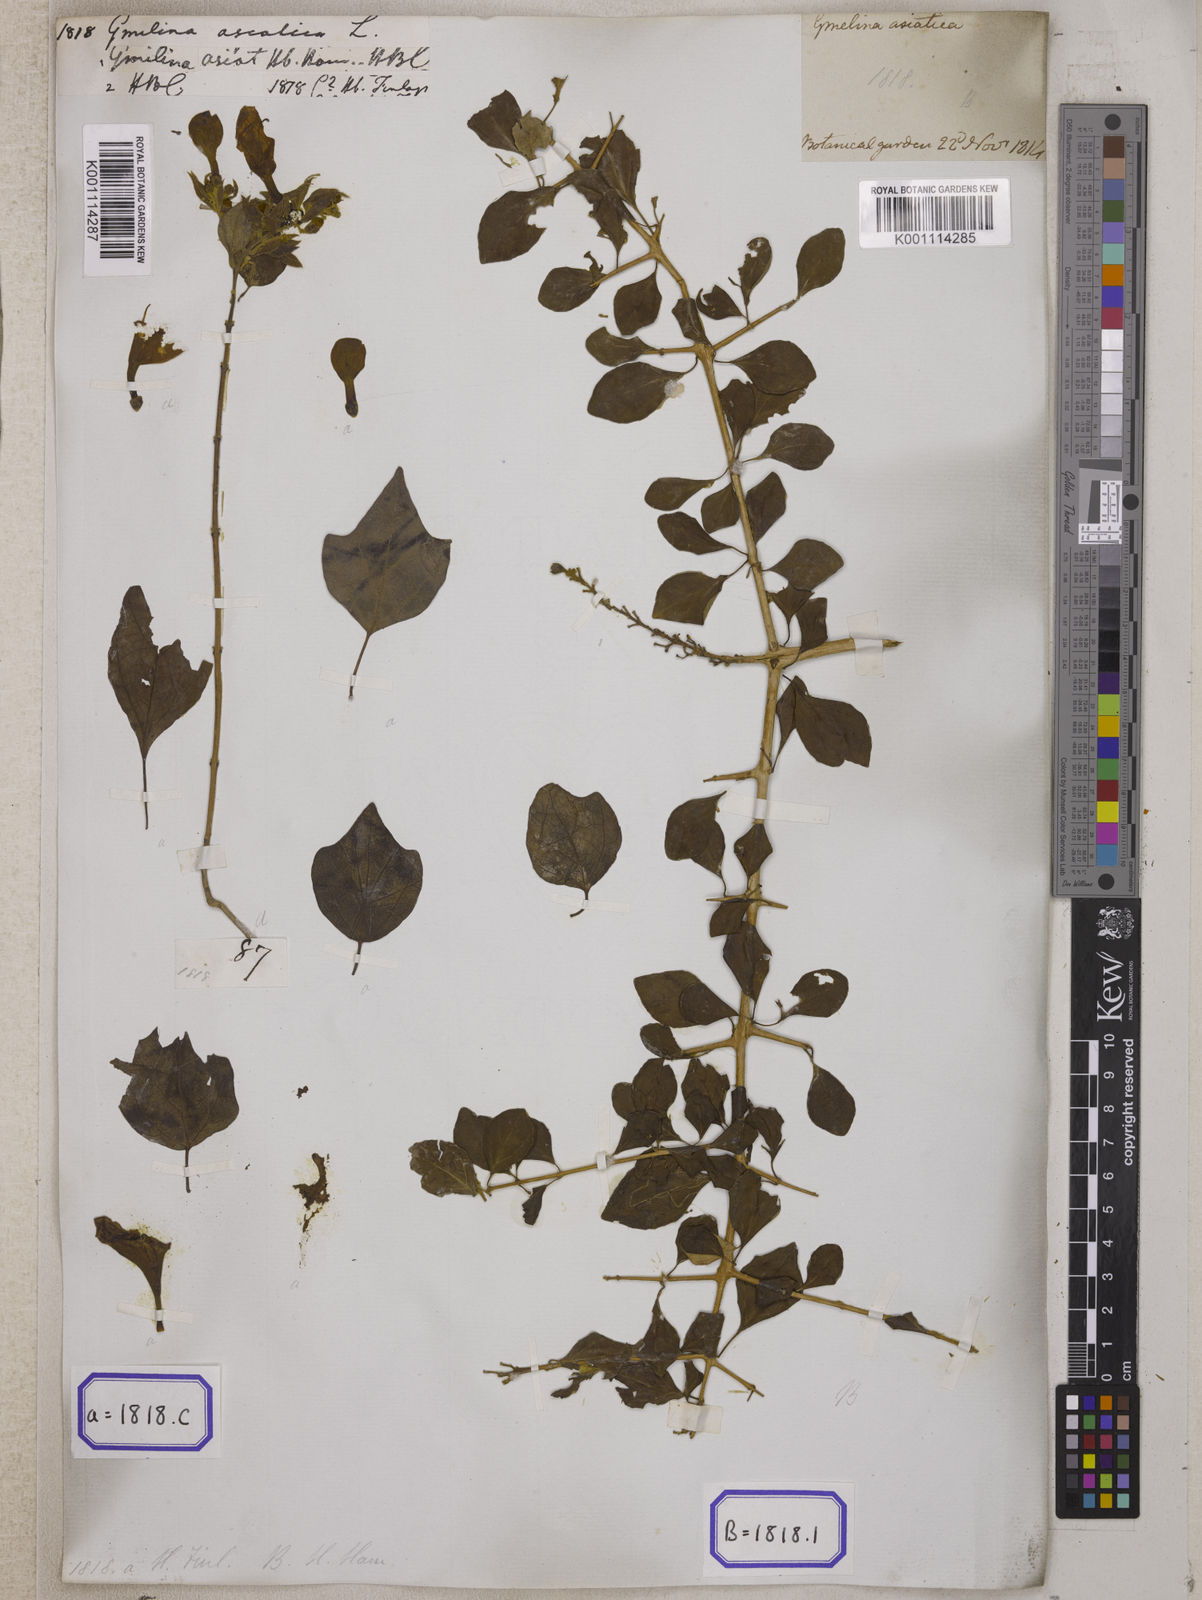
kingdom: Plantae
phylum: Tracheophyta
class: Magnoliopsida
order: Lamiales
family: Lamiaceae
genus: Gmelina
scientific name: Gmelina asiatica
